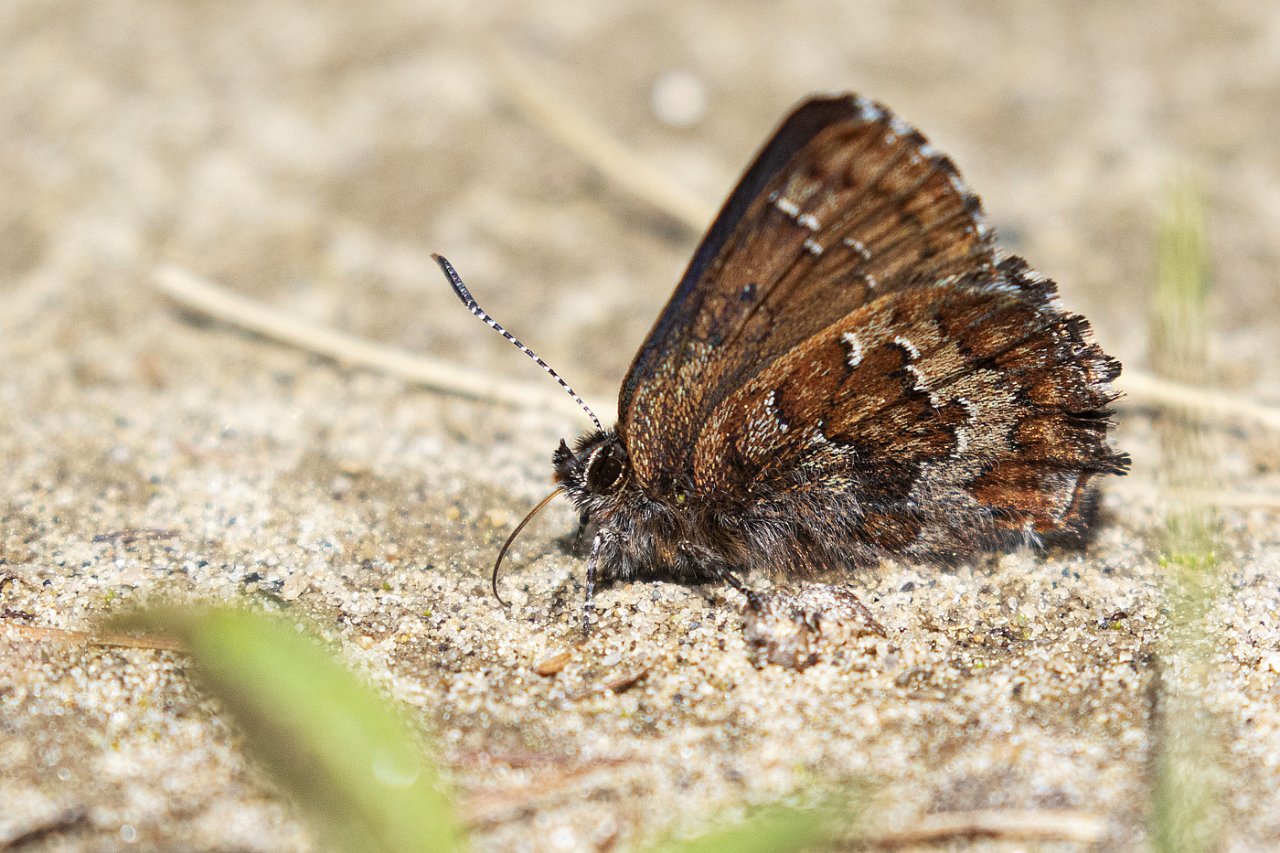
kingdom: Animalia
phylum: Arthropoda
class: Insecta
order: Lepidoptera
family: Lycaenidae
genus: Incisalia
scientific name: Incisalia niphon
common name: Eastern Pine Elfin
